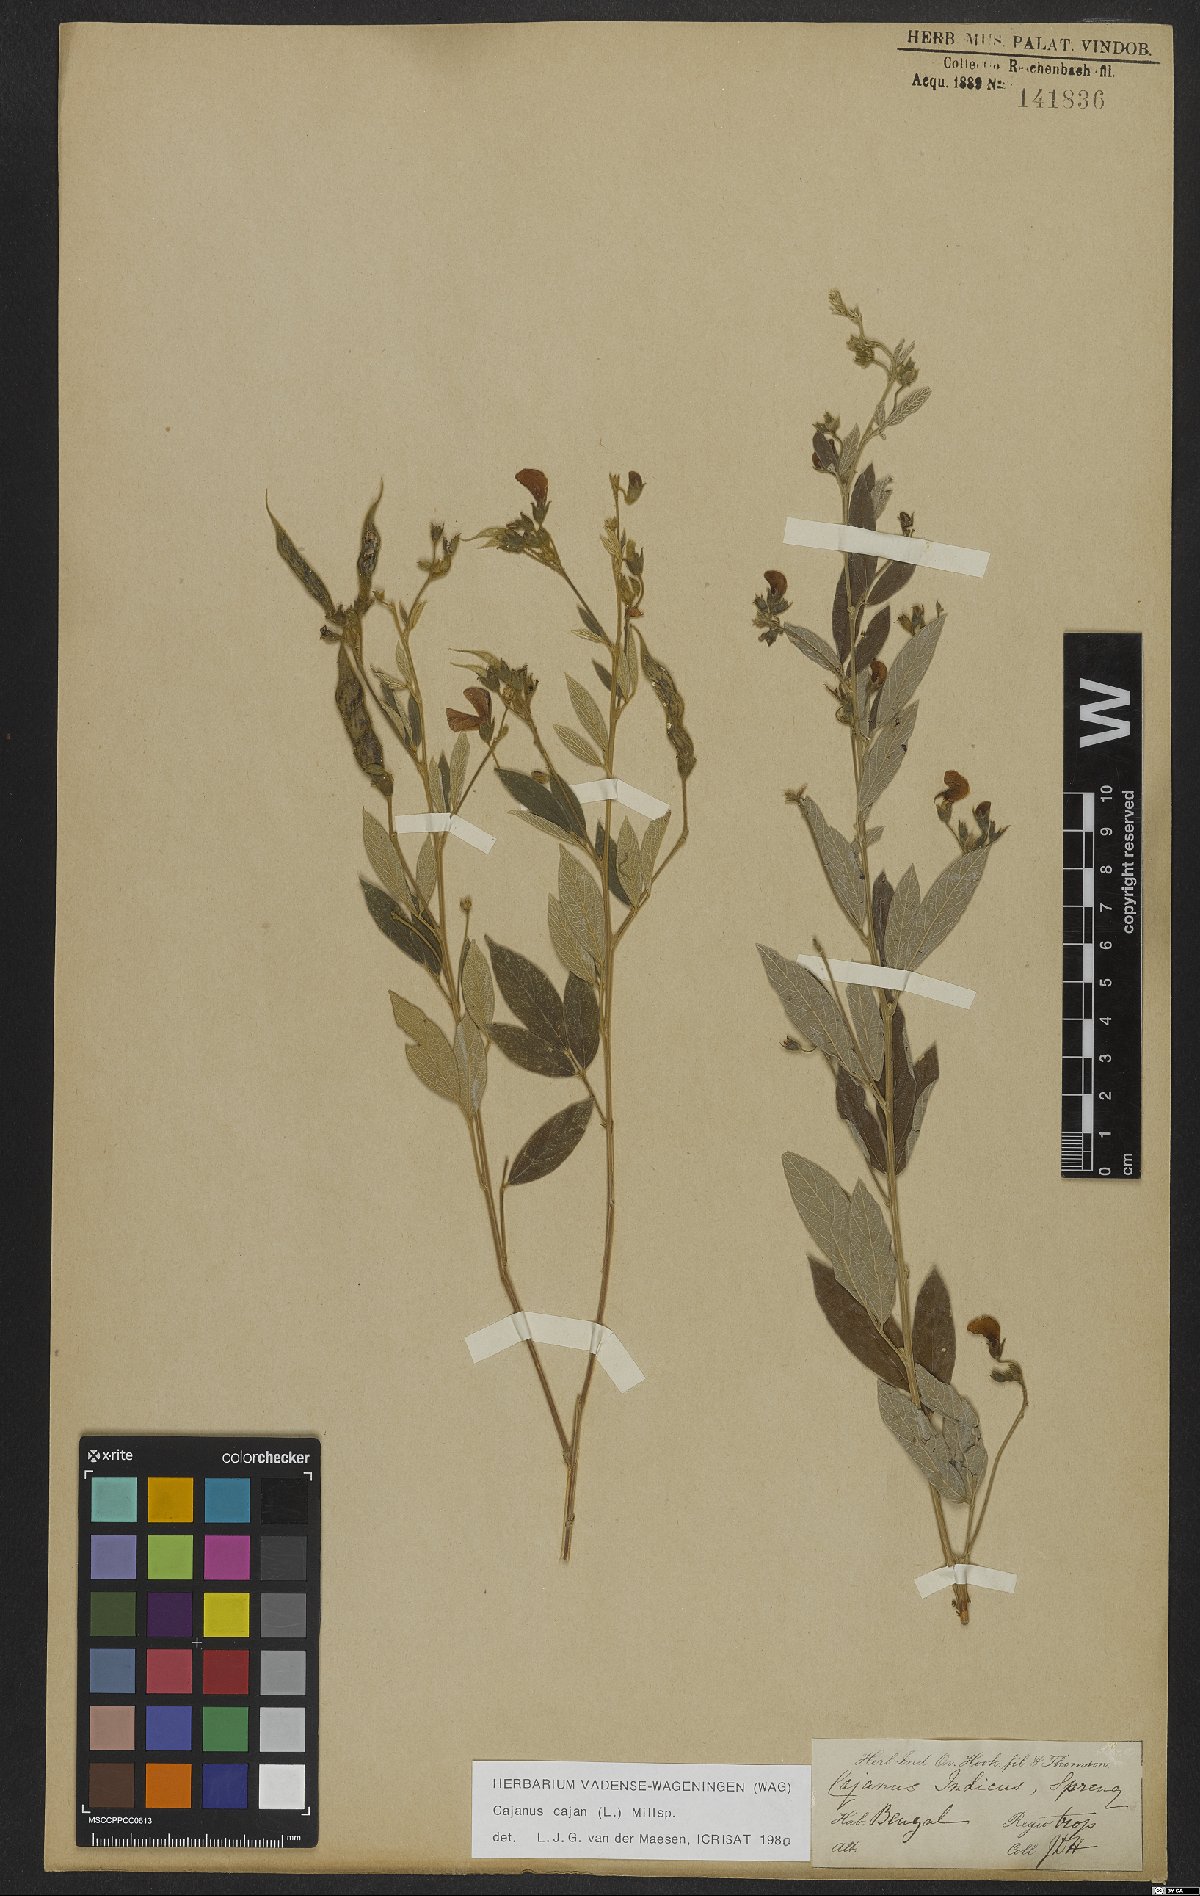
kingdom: Plantae
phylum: Tracheophyta
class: Magnoliopsida
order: Fabales
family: Fabaceae
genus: Cajanus
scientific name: Cajanus cajan
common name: Pigeonpea
